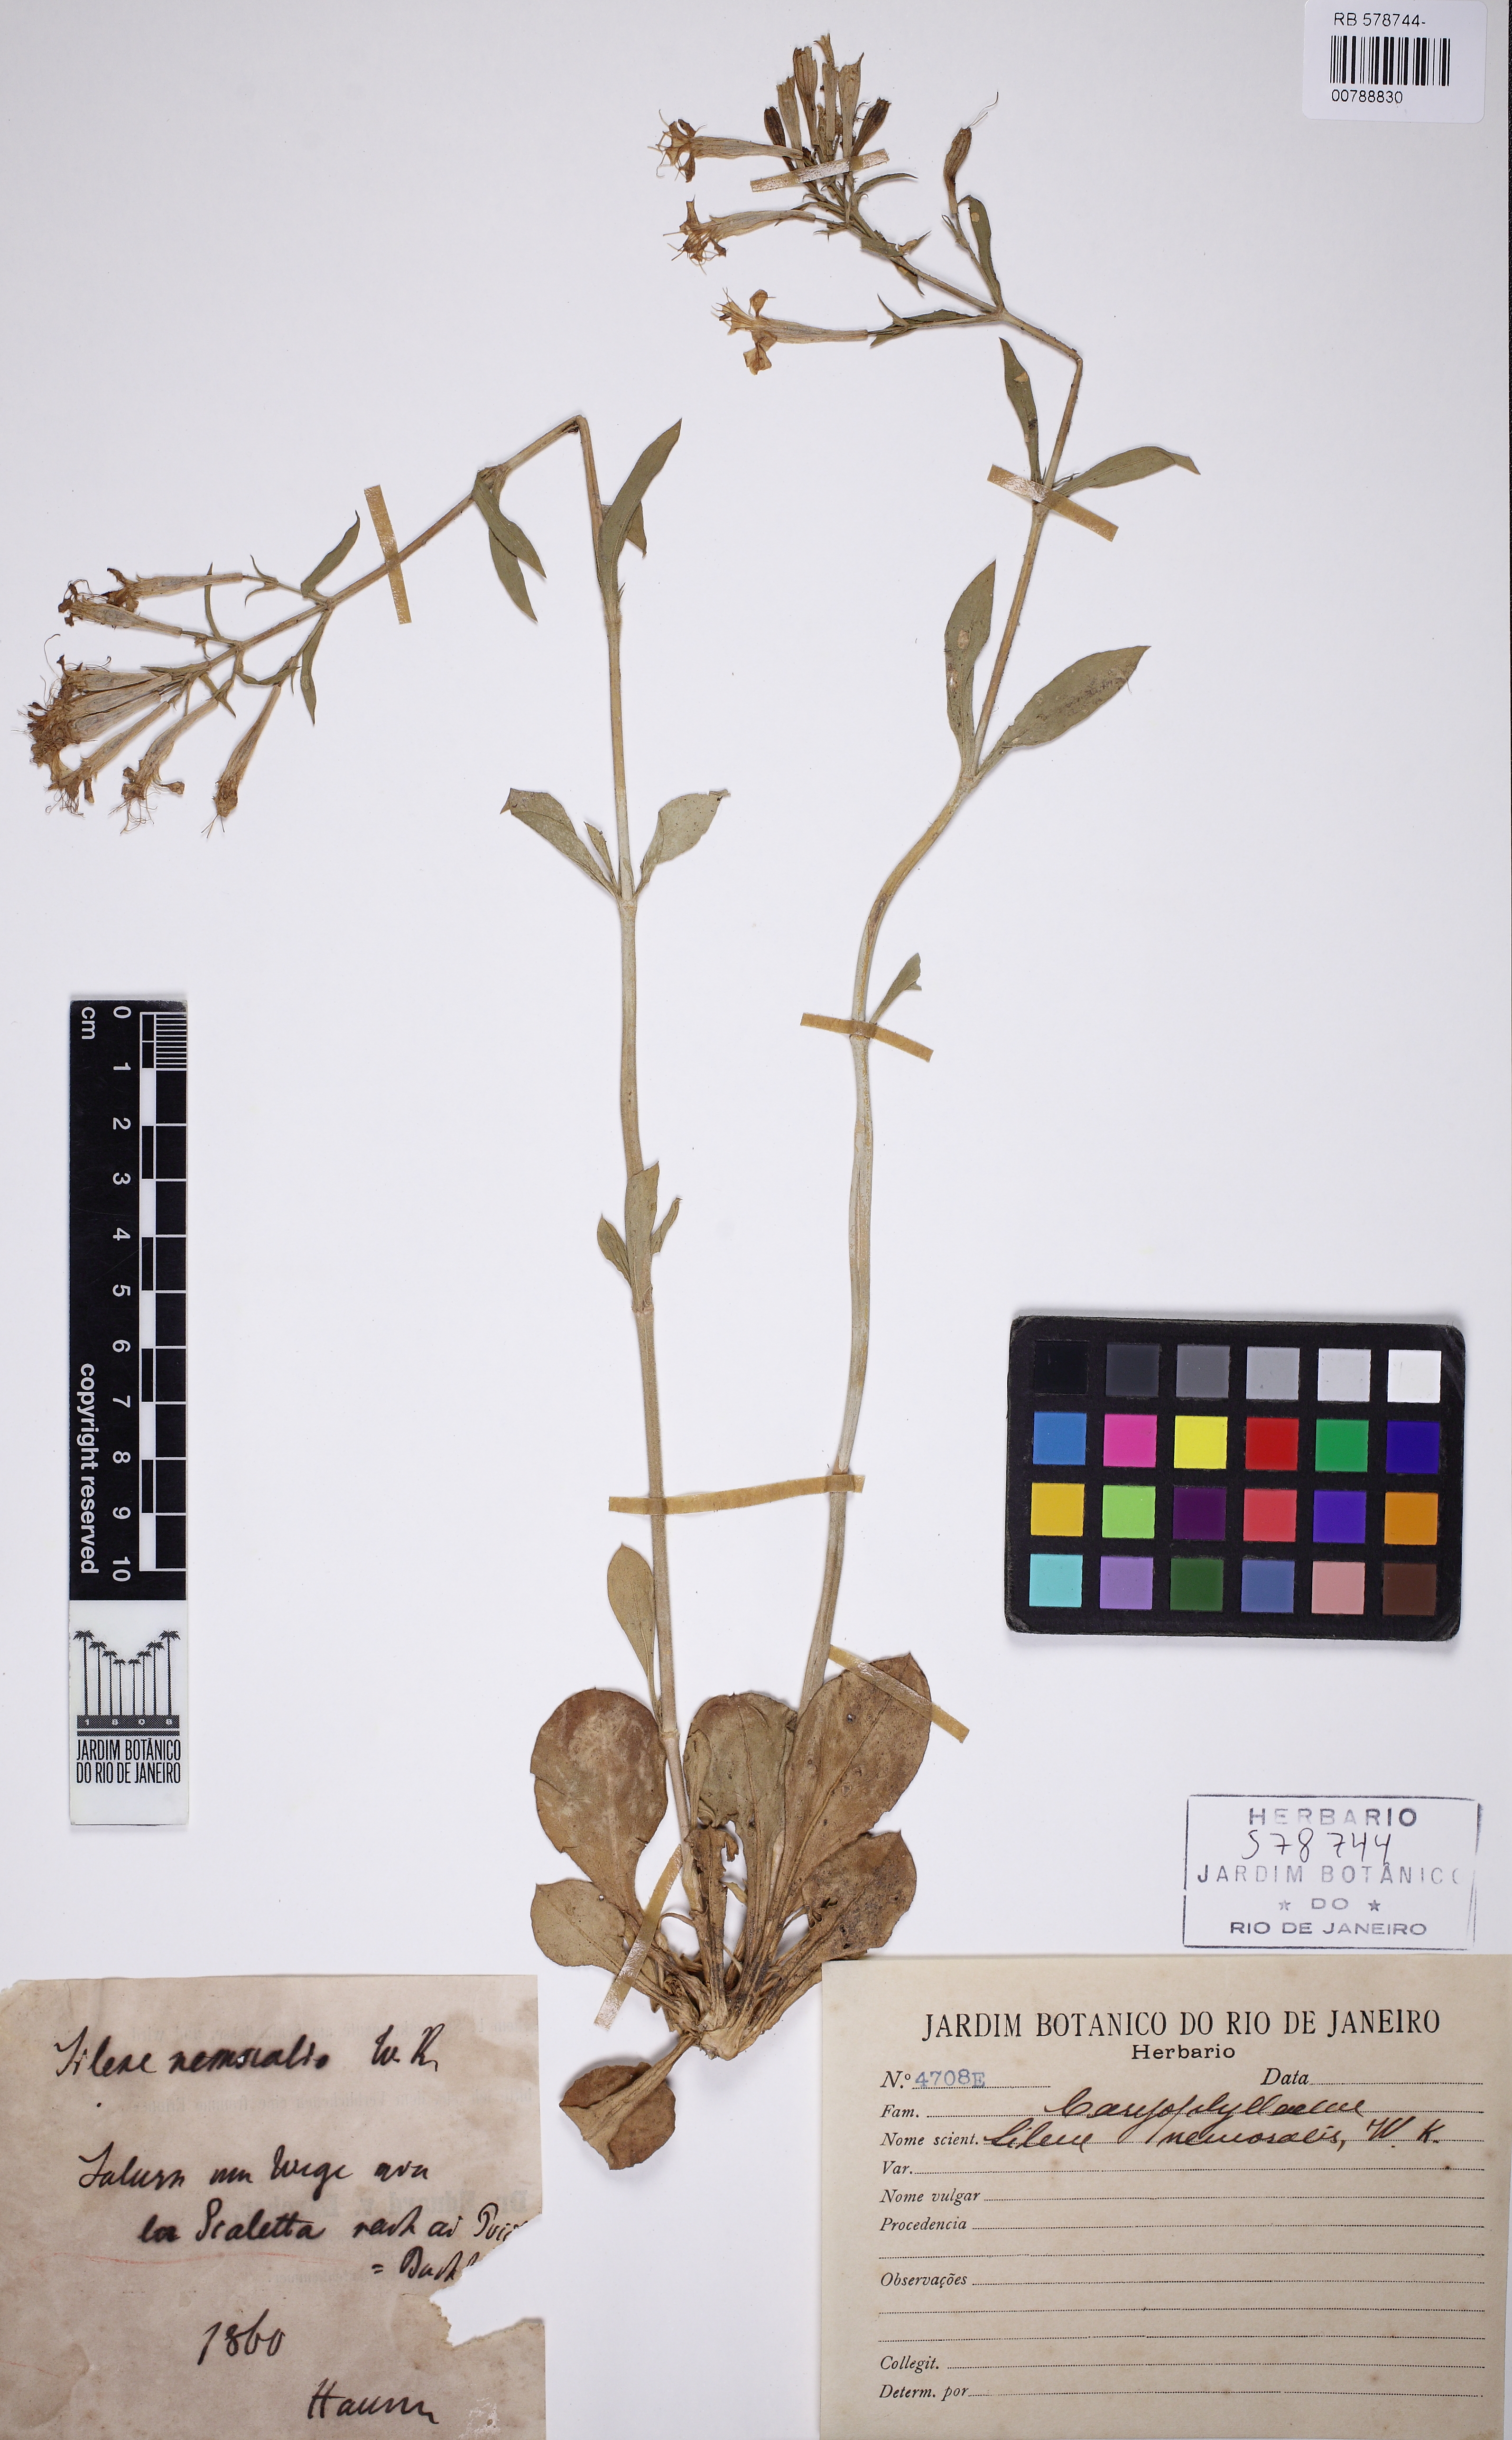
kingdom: Plantae
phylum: Tracheophyta
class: Magnoliopsida
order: Caryophyllales
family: Caryophyllaceae
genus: Silene
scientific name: Silene nemoralis
